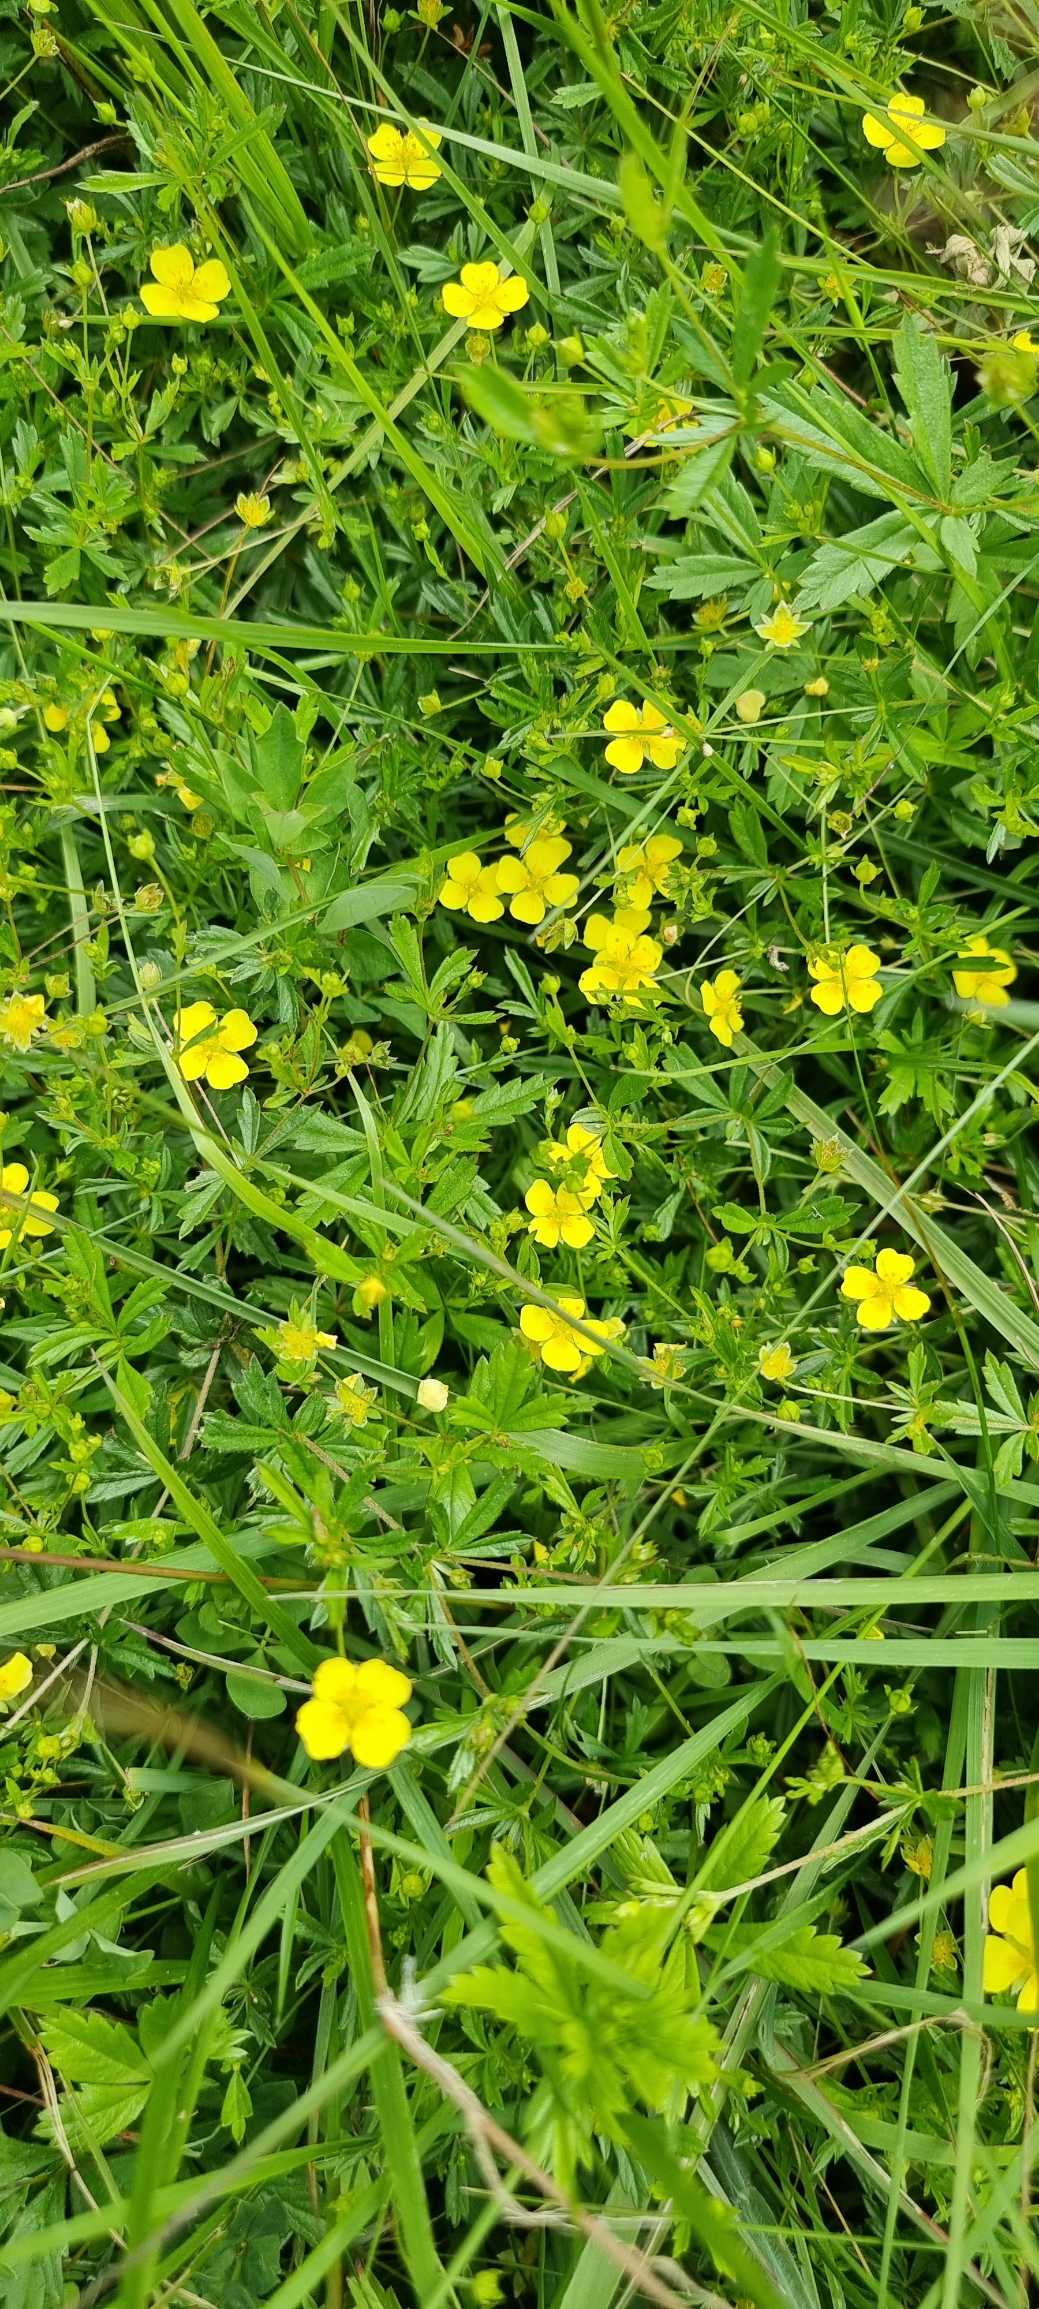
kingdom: Plantae
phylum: Tracheophyta
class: Magnoliopsida
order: Rosales
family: Rosaceae
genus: Potentilla
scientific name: Potentilla erecta
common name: Tormentil
